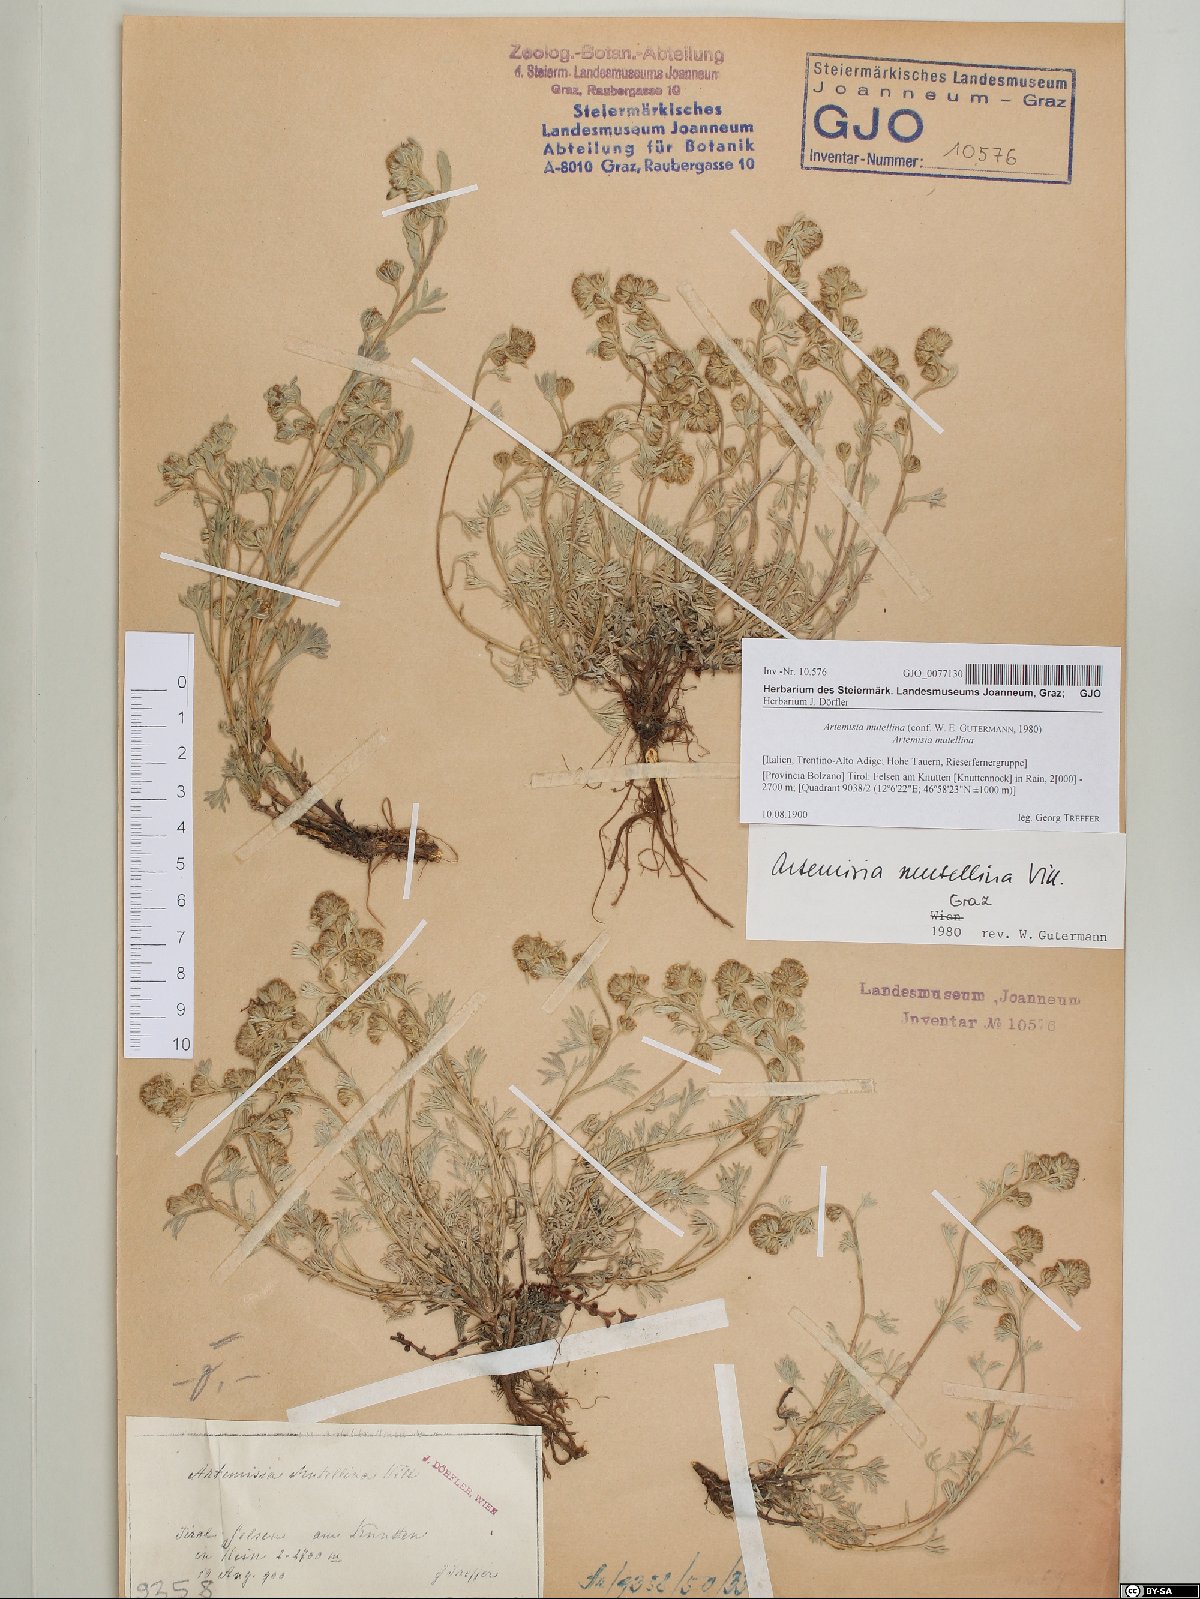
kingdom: Plantae
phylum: Tracheophyta
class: Magnoliopsida
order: Asterales
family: Asteraceae
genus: Artemisia
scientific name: Artemisia mutellina
